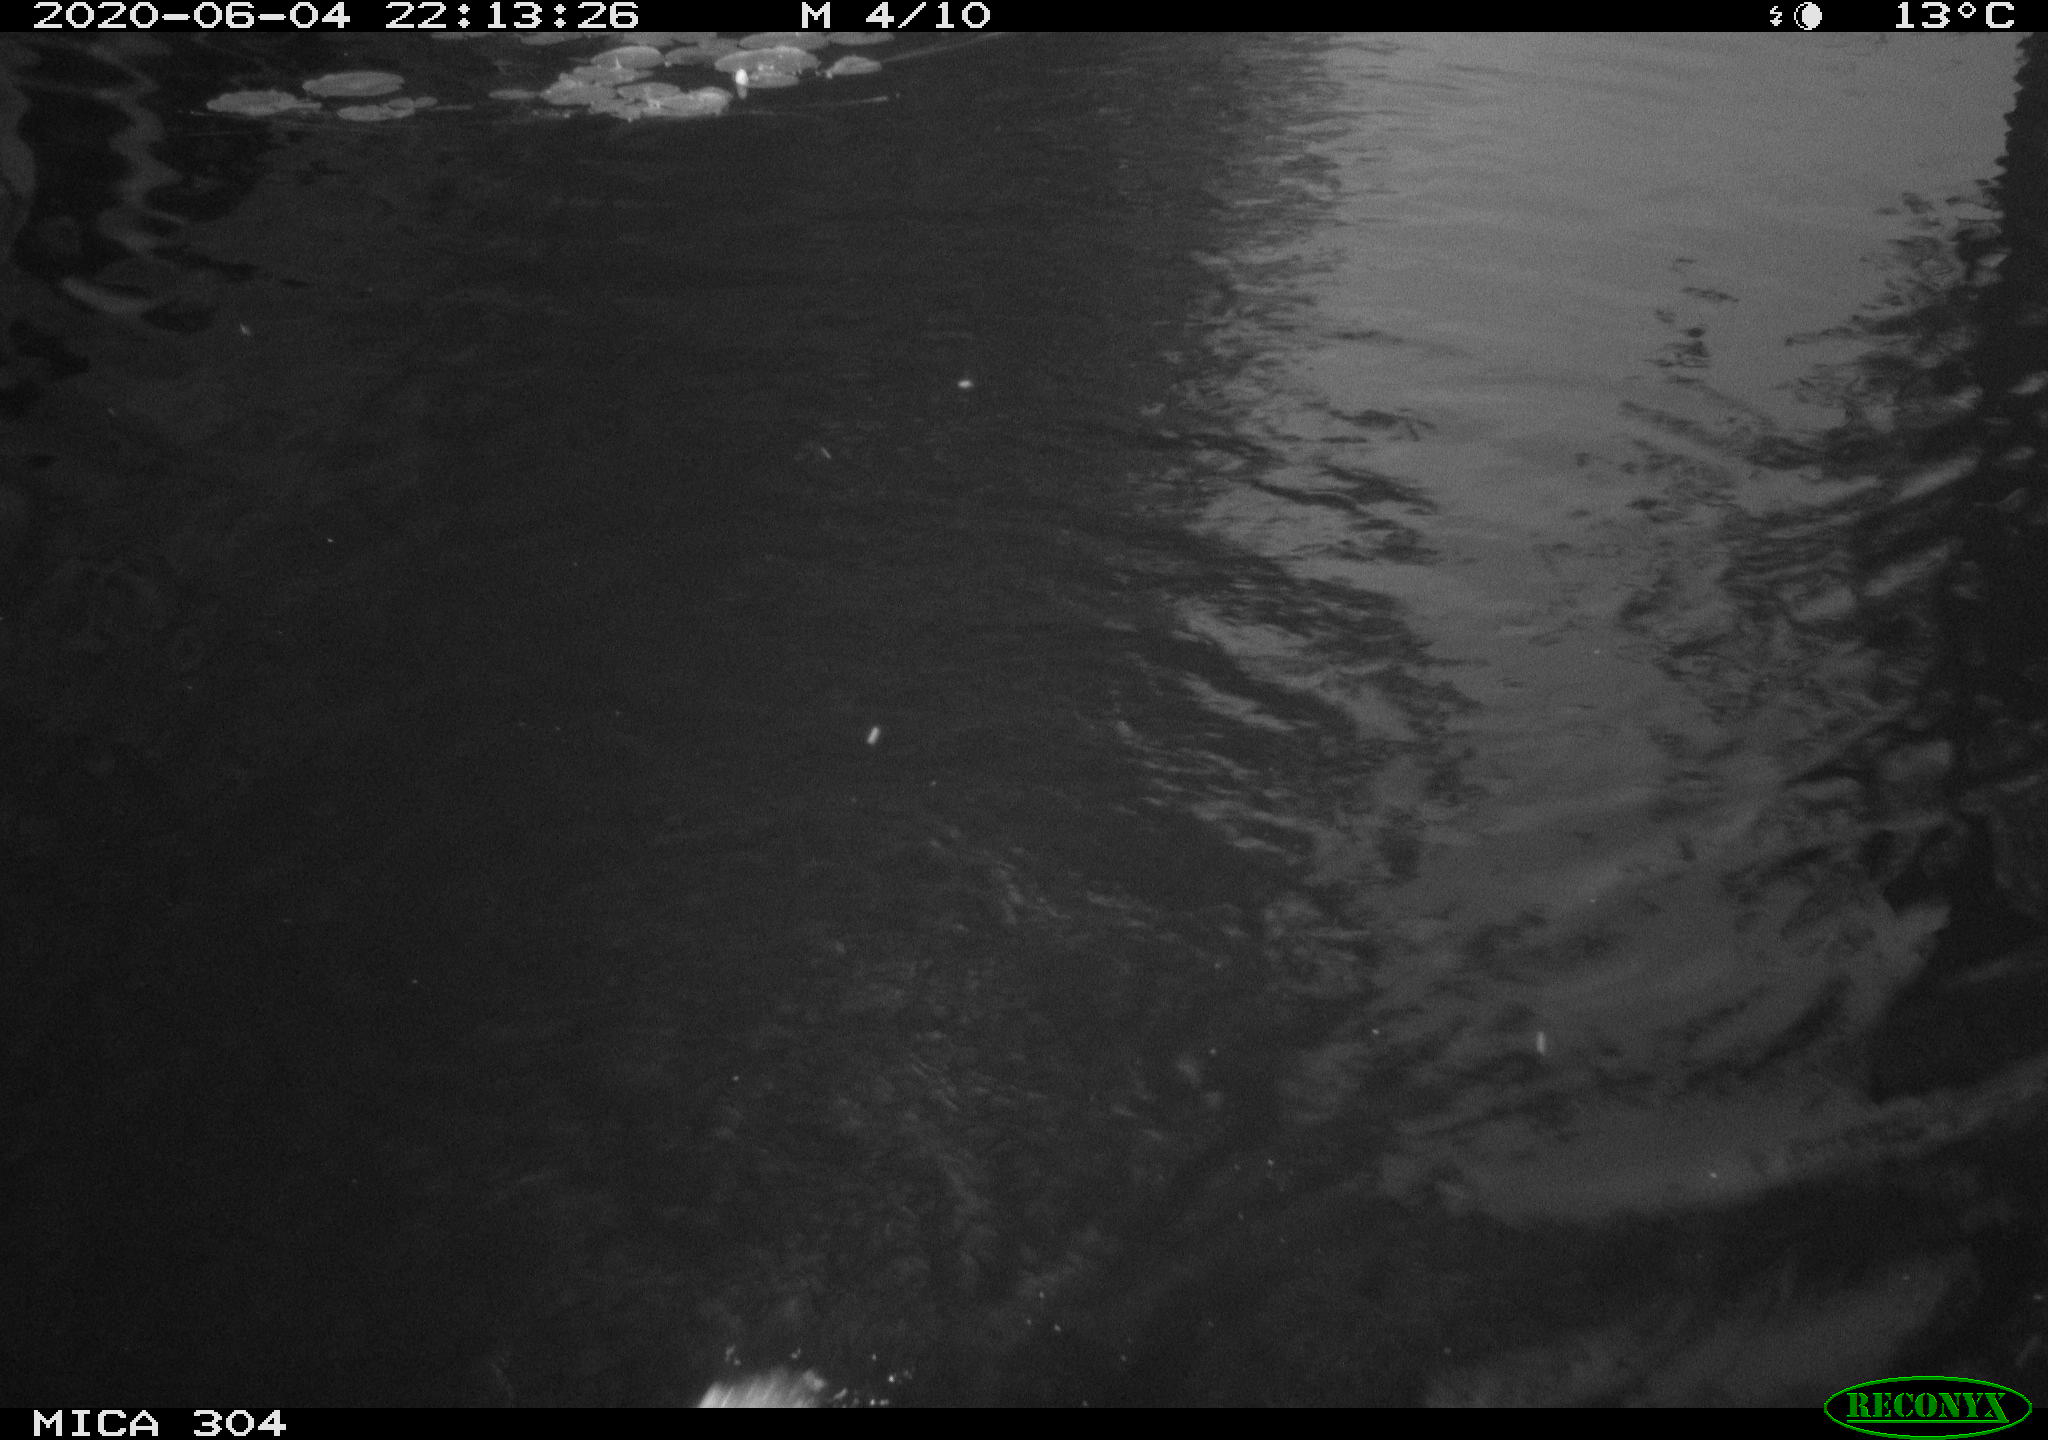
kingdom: Animalia
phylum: Chordata
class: Aves
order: Anseriformes
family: Anatidae
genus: Anas
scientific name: Anas platyrhynchos
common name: Mallard
